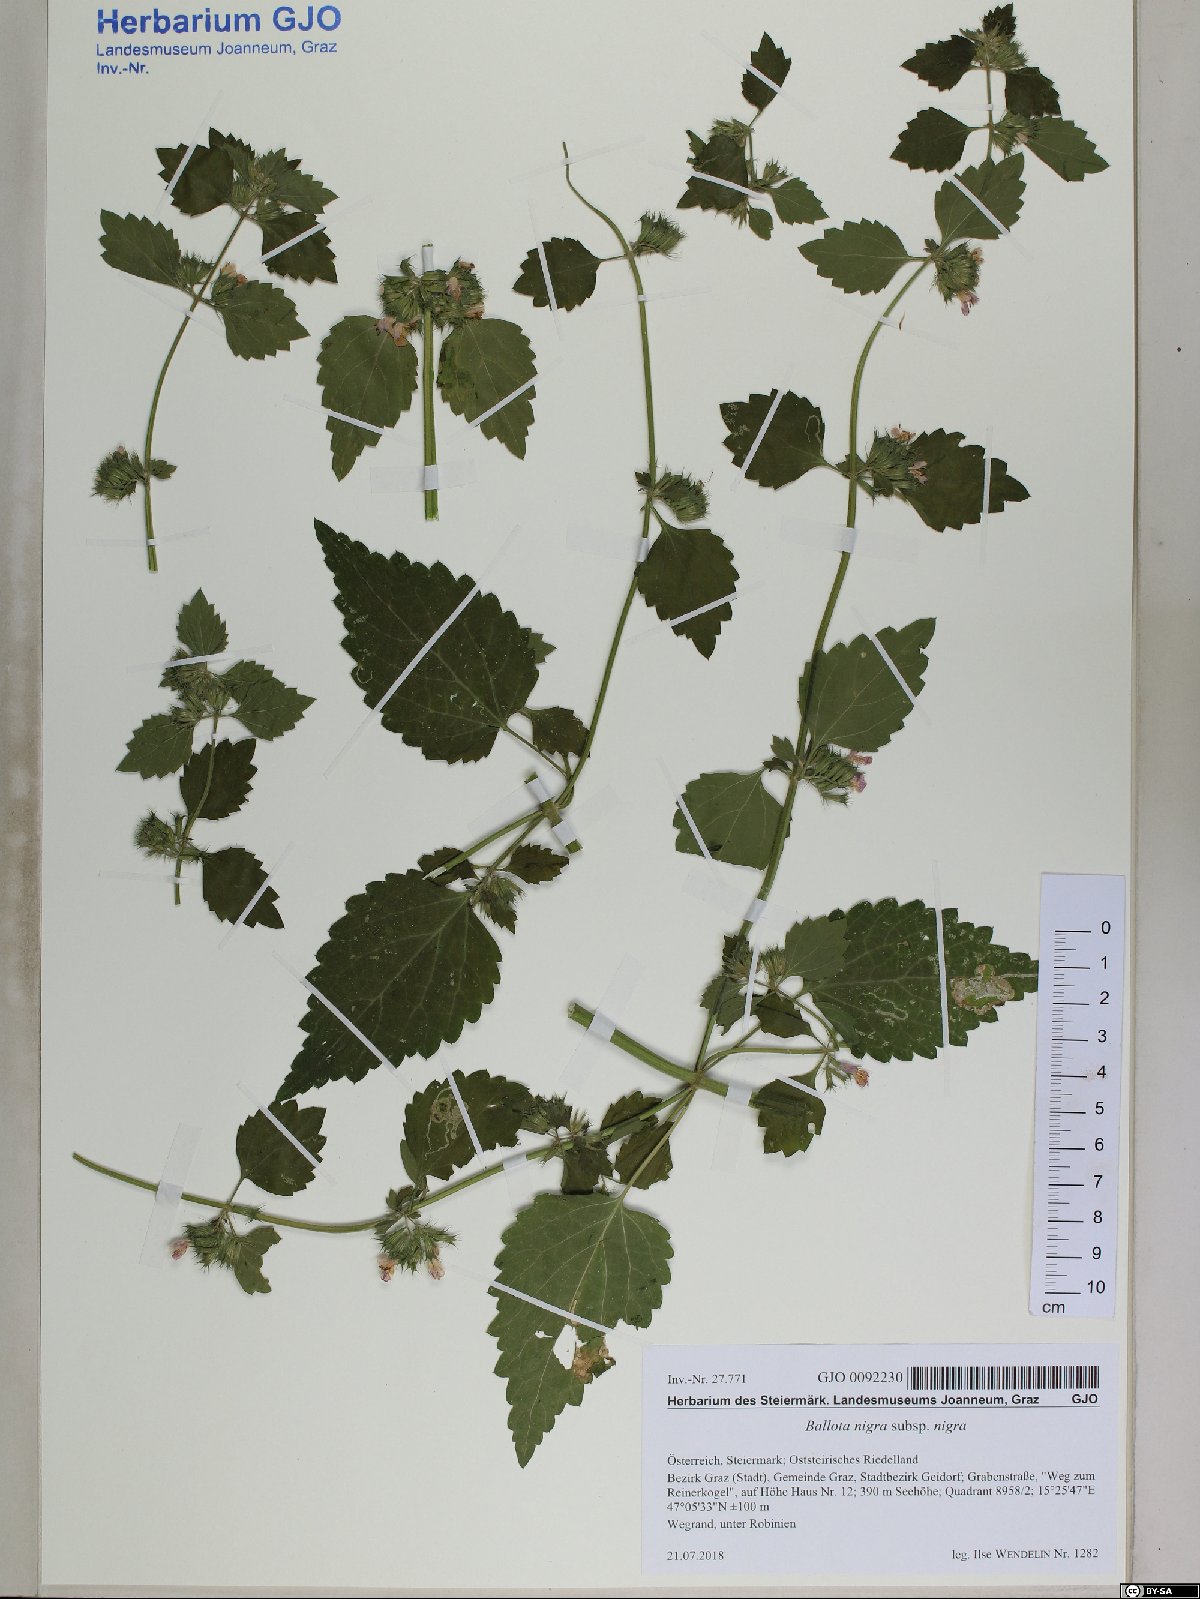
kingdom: Plantae
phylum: Tracheophyta
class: Magnoliopsida
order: Lamiales
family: Lamiaceae
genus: Ballota
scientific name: Ballota nigra
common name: Black horehound
